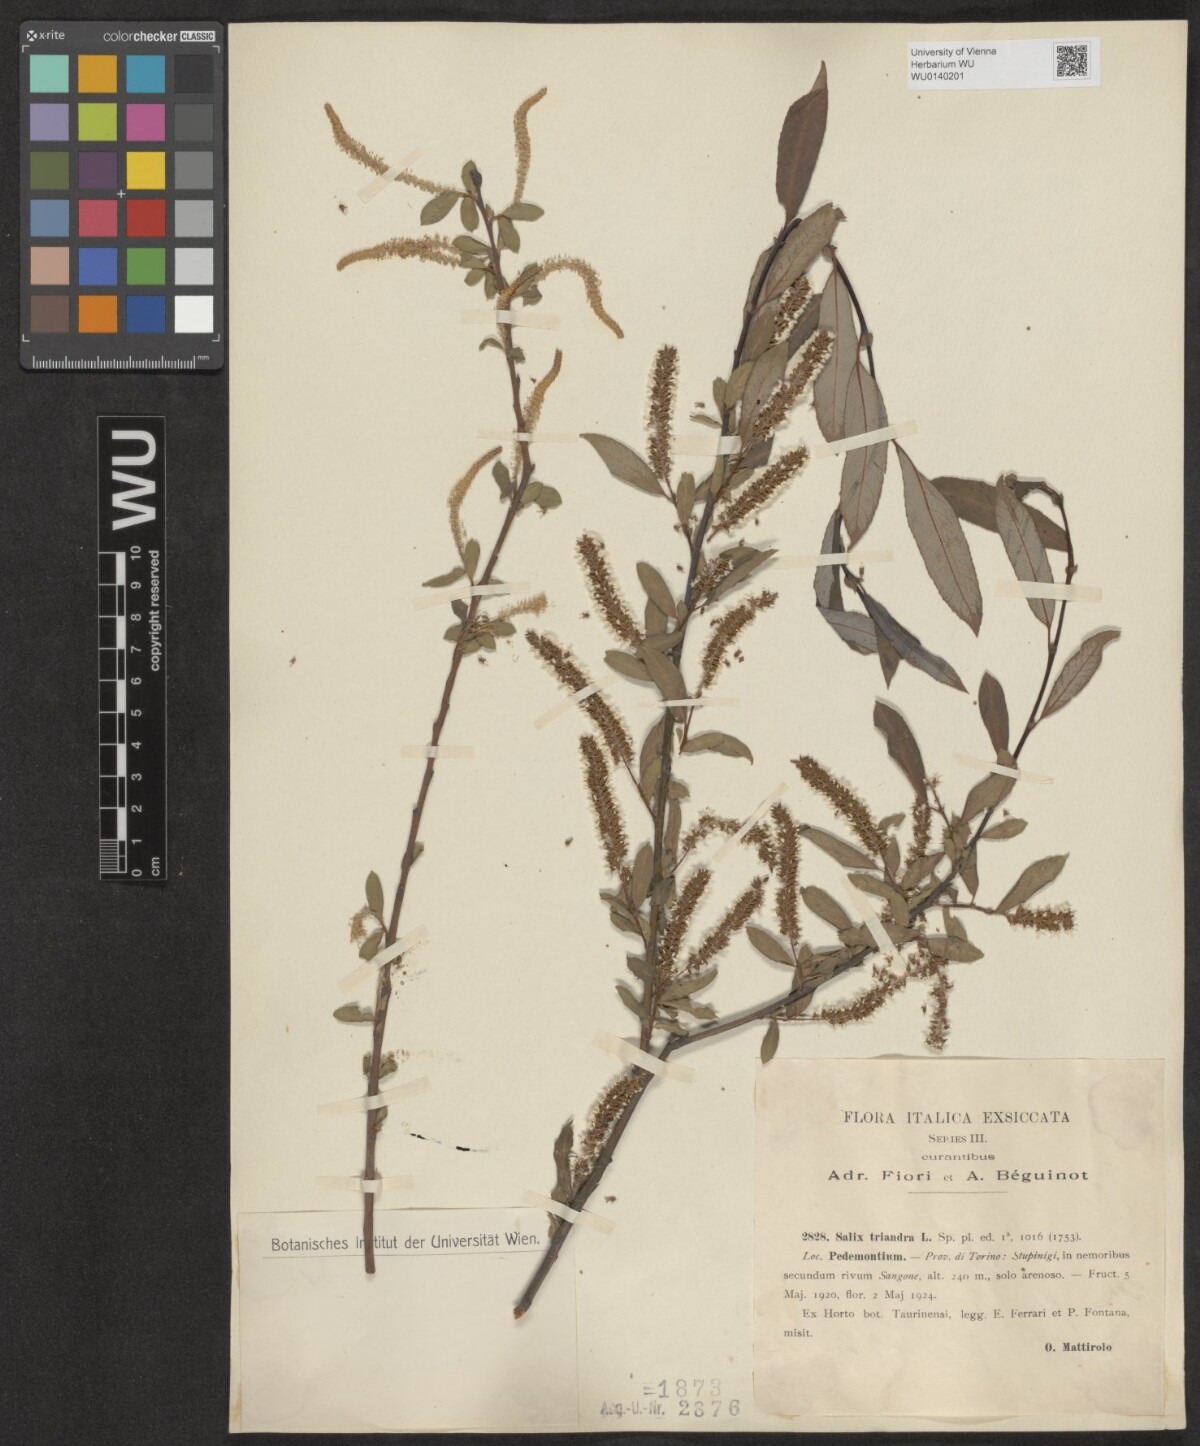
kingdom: Plantae
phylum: Tracheophyta
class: Magnoliopsida
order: Malpighiales
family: Salicaceae
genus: Salix
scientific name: Salix triandra
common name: Almond willow
